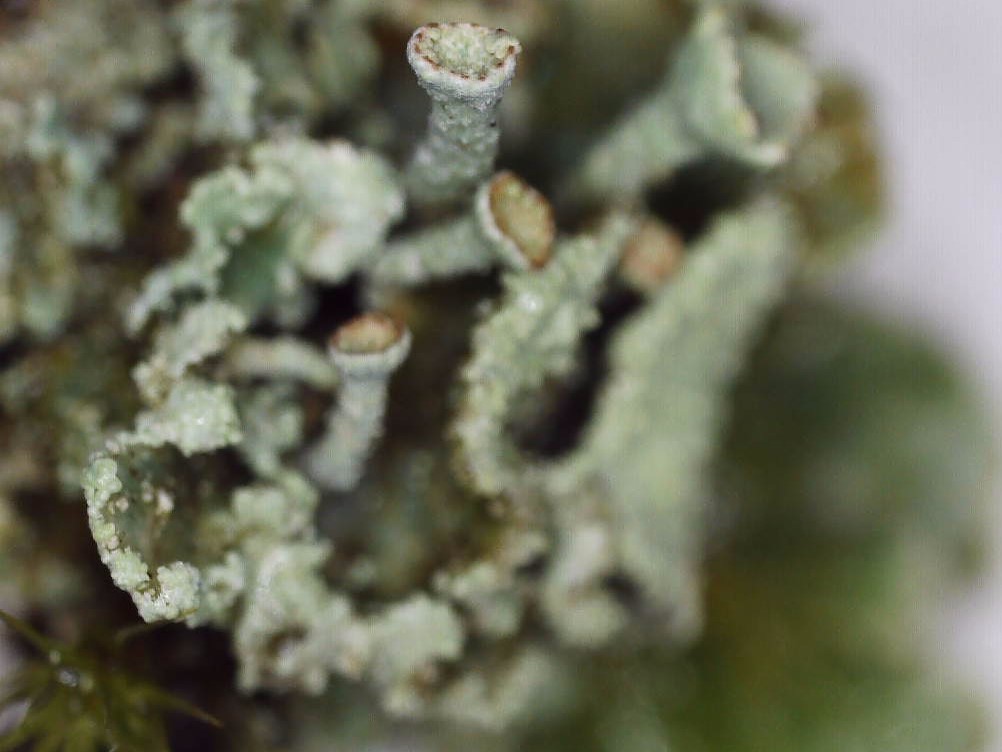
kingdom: Fungi
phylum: Ascomycota
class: Lecanoromycetes
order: Lecanorales
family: Cladoniaceae
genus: Cladonia
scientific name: Cladonia digitata
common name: finger-bægerlav
